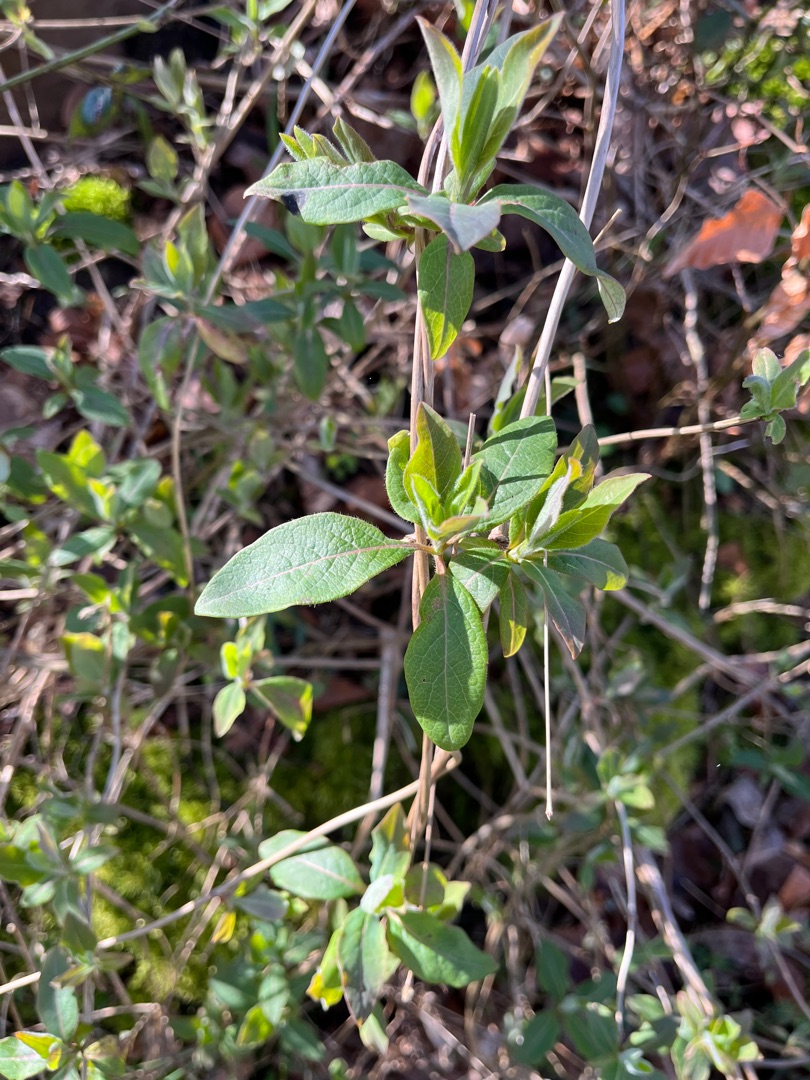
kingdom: Plantae
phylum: Tracheophyta
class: Magnoliopsida
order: Dipsacales
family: Caprifoliaceae
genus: Lonicera
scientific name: Lonicera periclymenum
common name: Almindelig gedeblad
